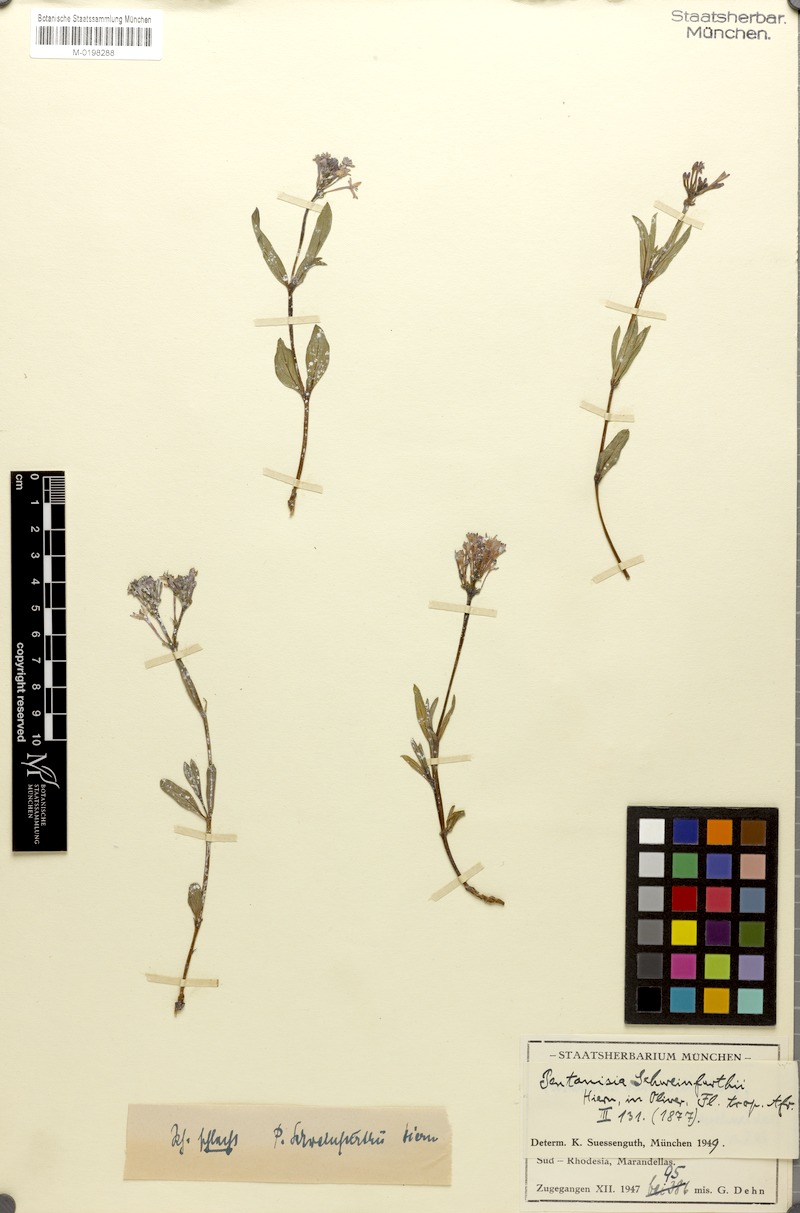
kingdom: Plantae
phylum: Tracheophyta
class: Magnoliopsida
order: Gentianales
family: Rubiaceae
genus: Pentanisia
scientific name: Pentanisia schweinfurthii
